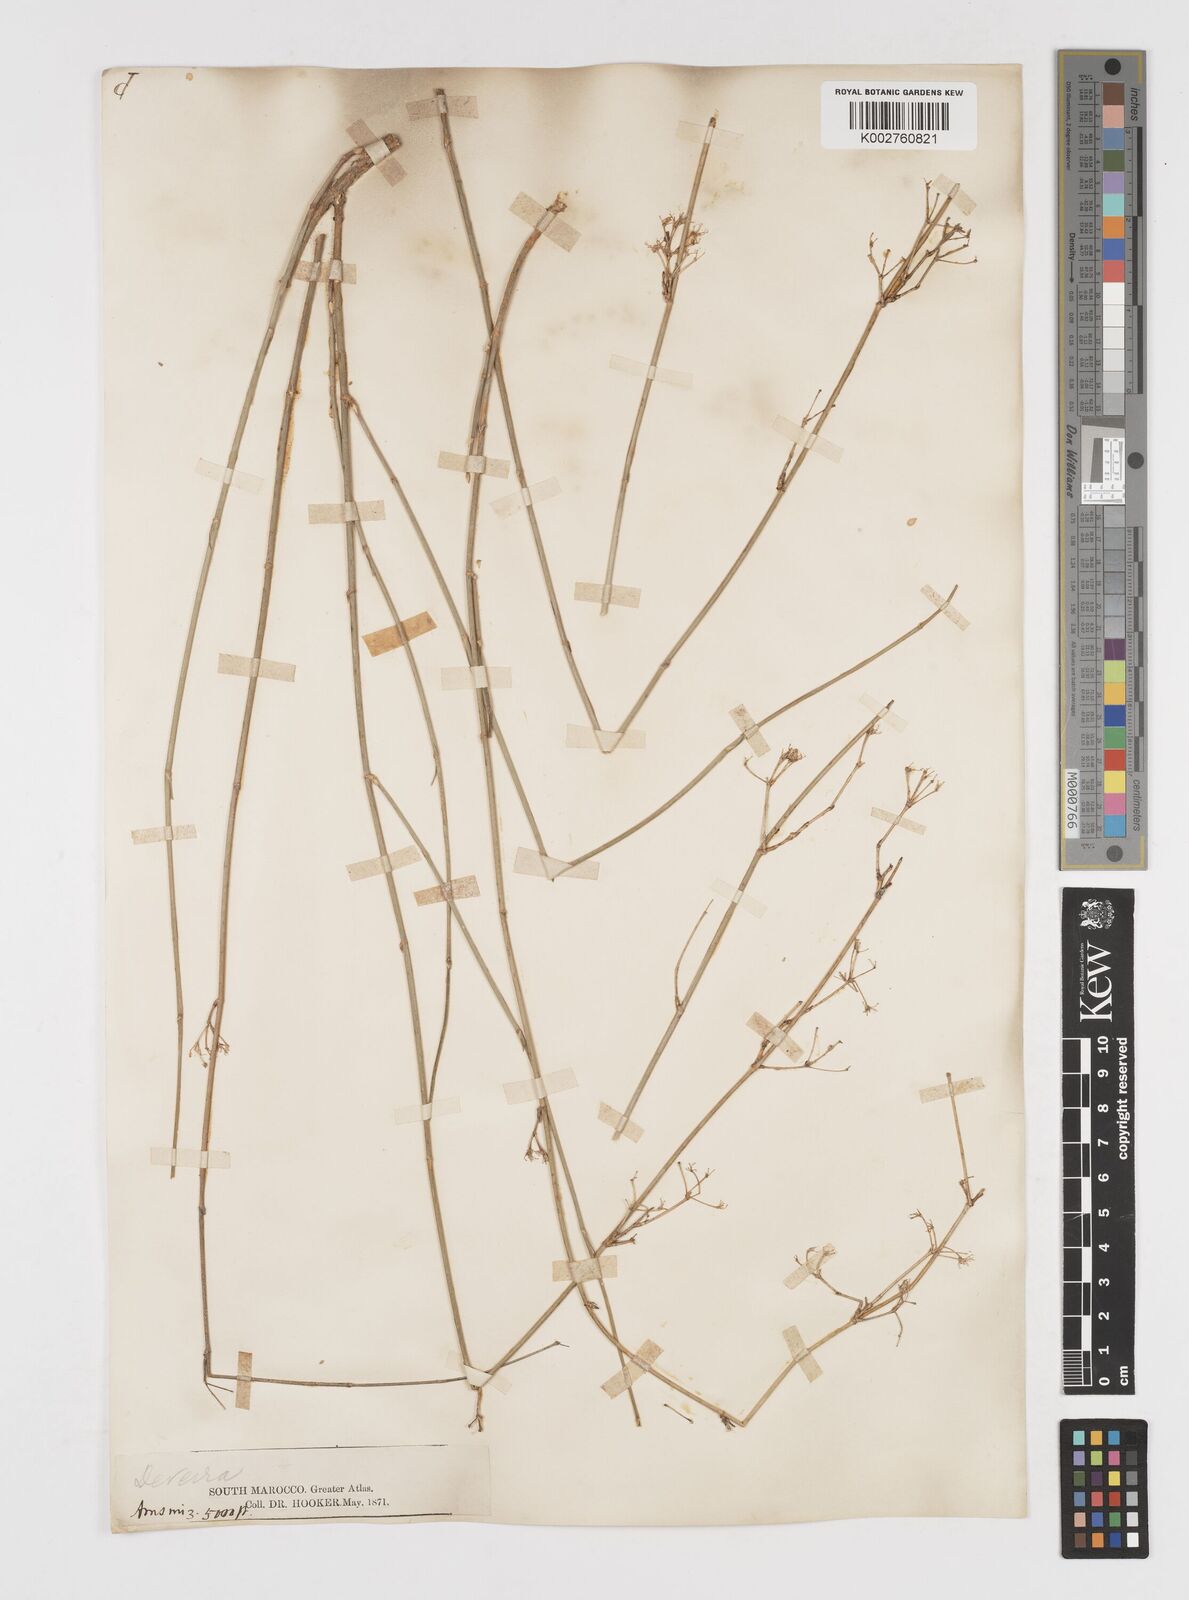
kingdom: Plantae
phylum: Tracheophyta
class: Magnoliopsida
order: Apiales
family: Apiaceae
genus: Deverra
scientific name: Deverra scoparia
